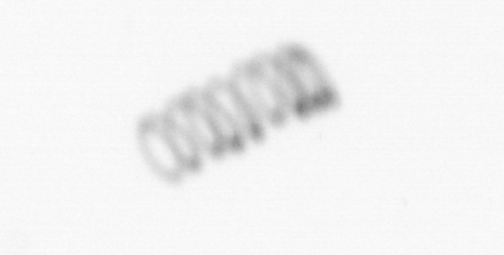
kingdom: Chromista
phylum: Ochrophyta
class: Bacillariophyceae
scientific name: Bacillariophyceae
